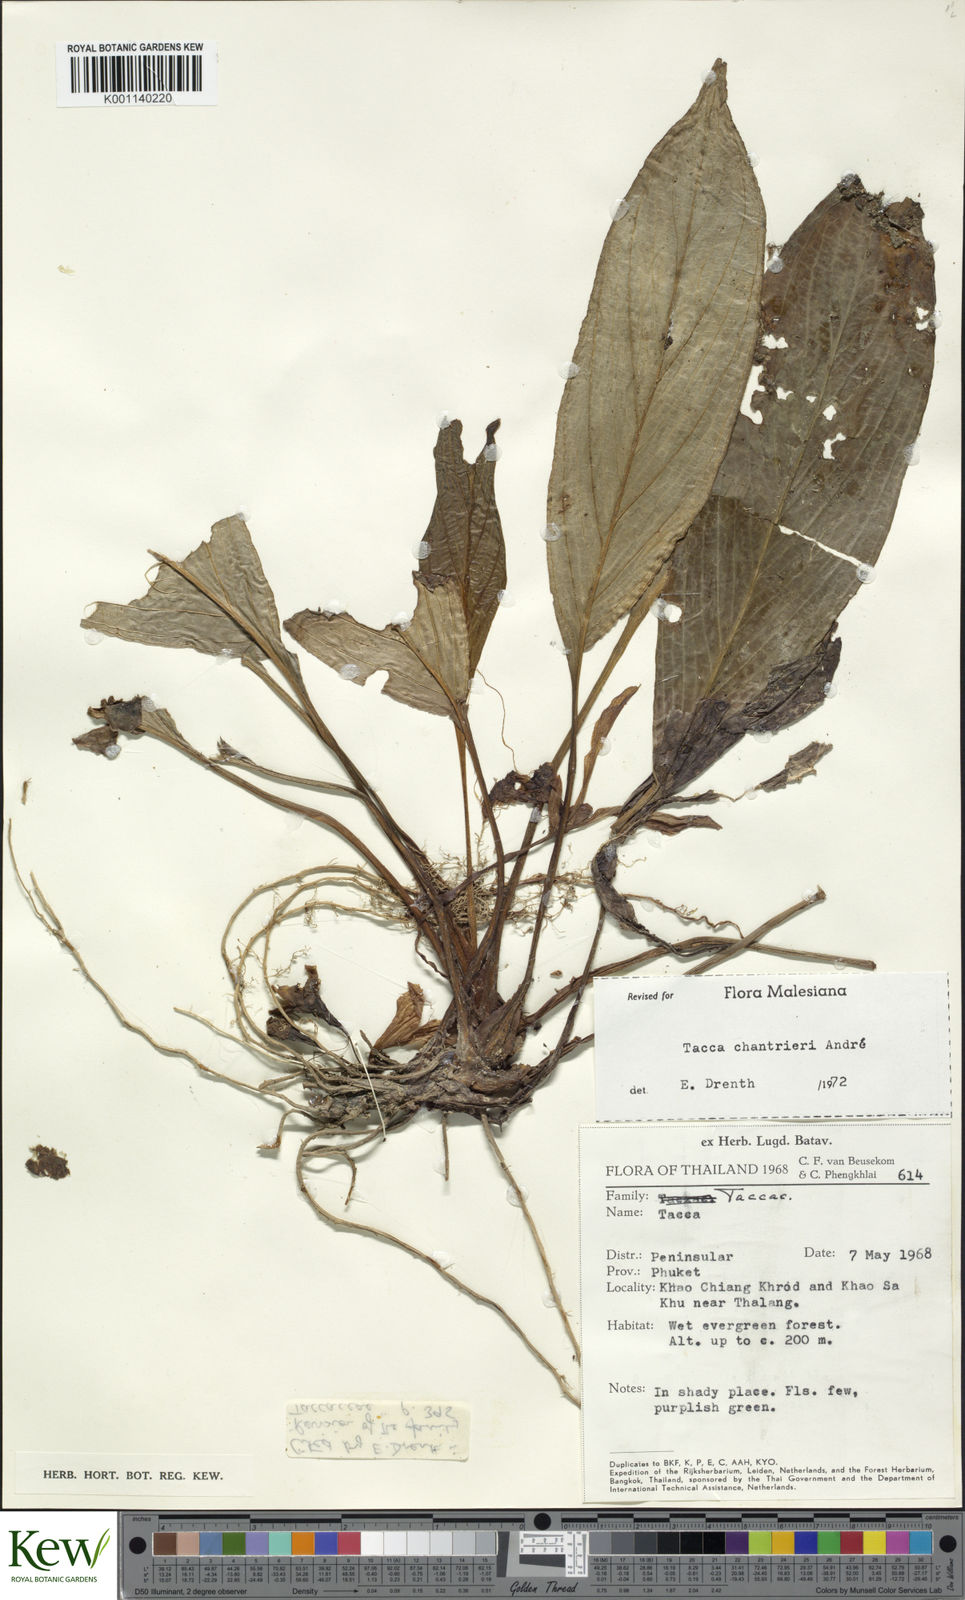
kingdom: Plantae
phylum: Tracheophyta
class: Liliopsida
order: Dioscoreales
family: Dioscoreaceae
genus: Tacca
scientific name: Tacca
